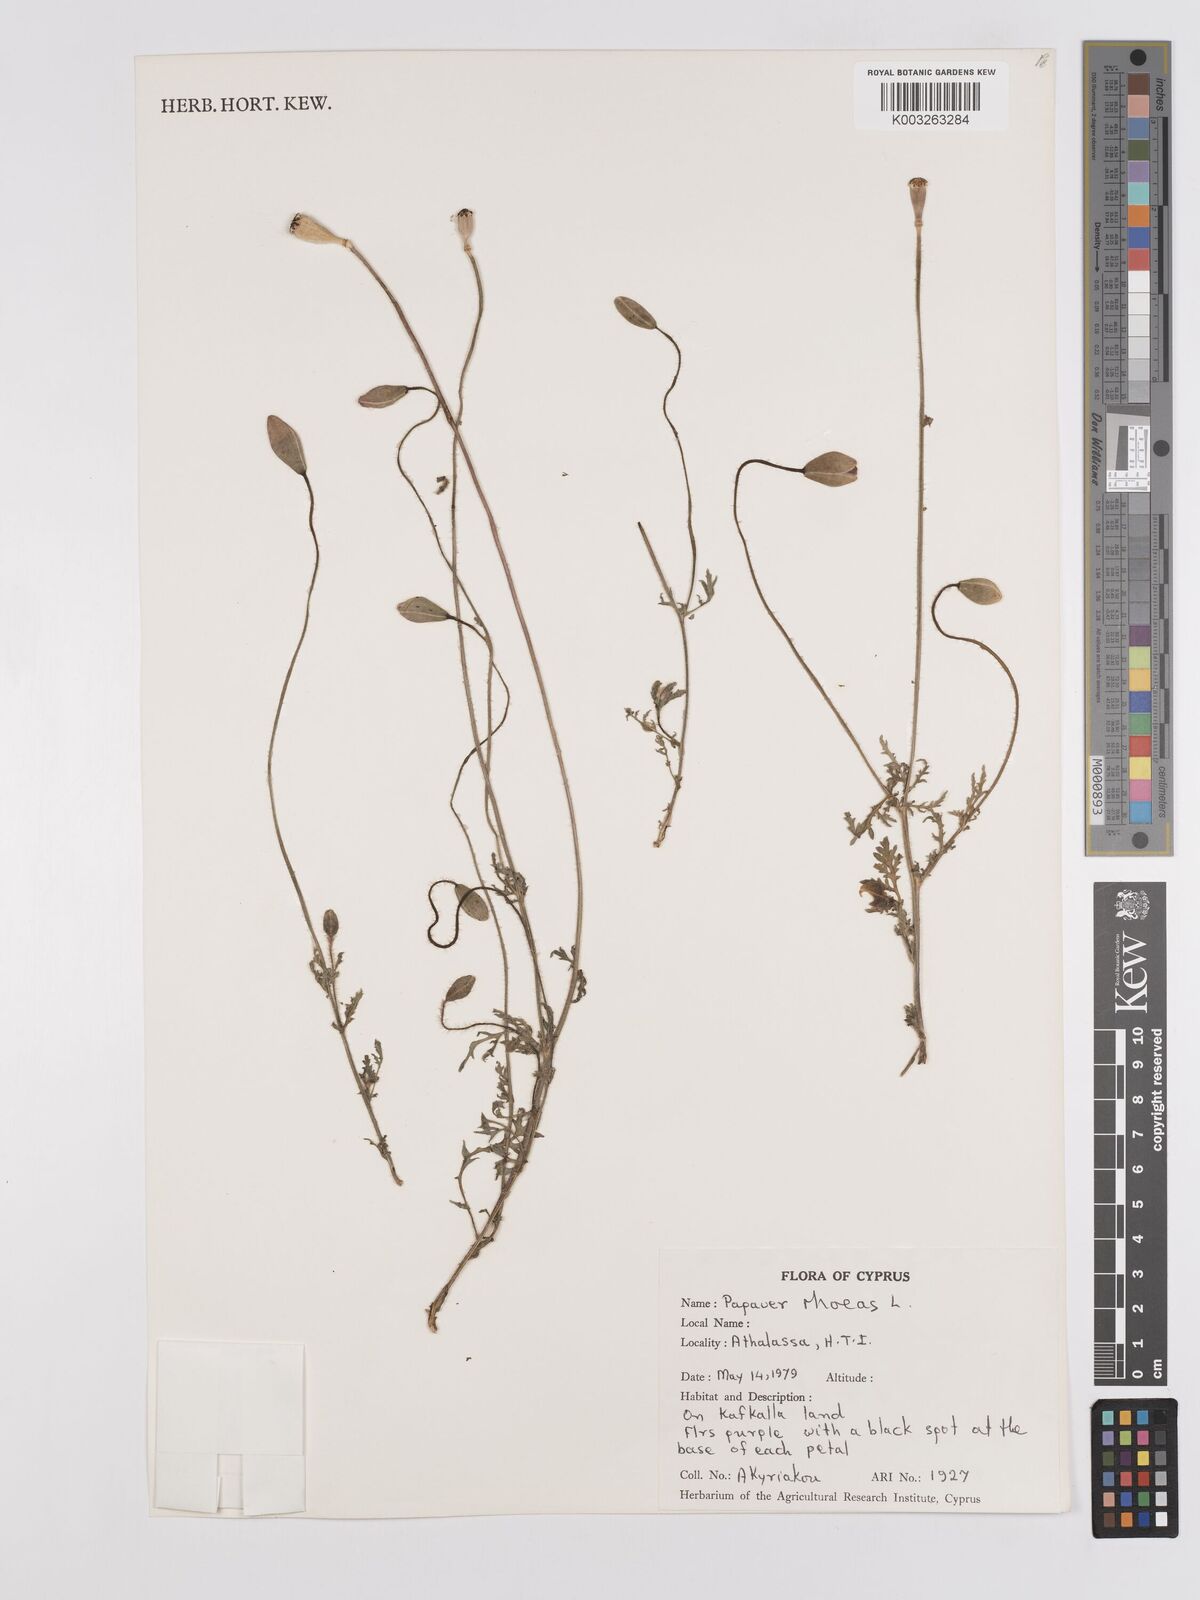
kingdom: Plantae
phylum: Tracheophyta
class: Magnoliopsida
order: Ranunculales
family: Papaveraceae
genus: Papaver
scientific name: Papaver rhoeas
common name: Corn poppy
